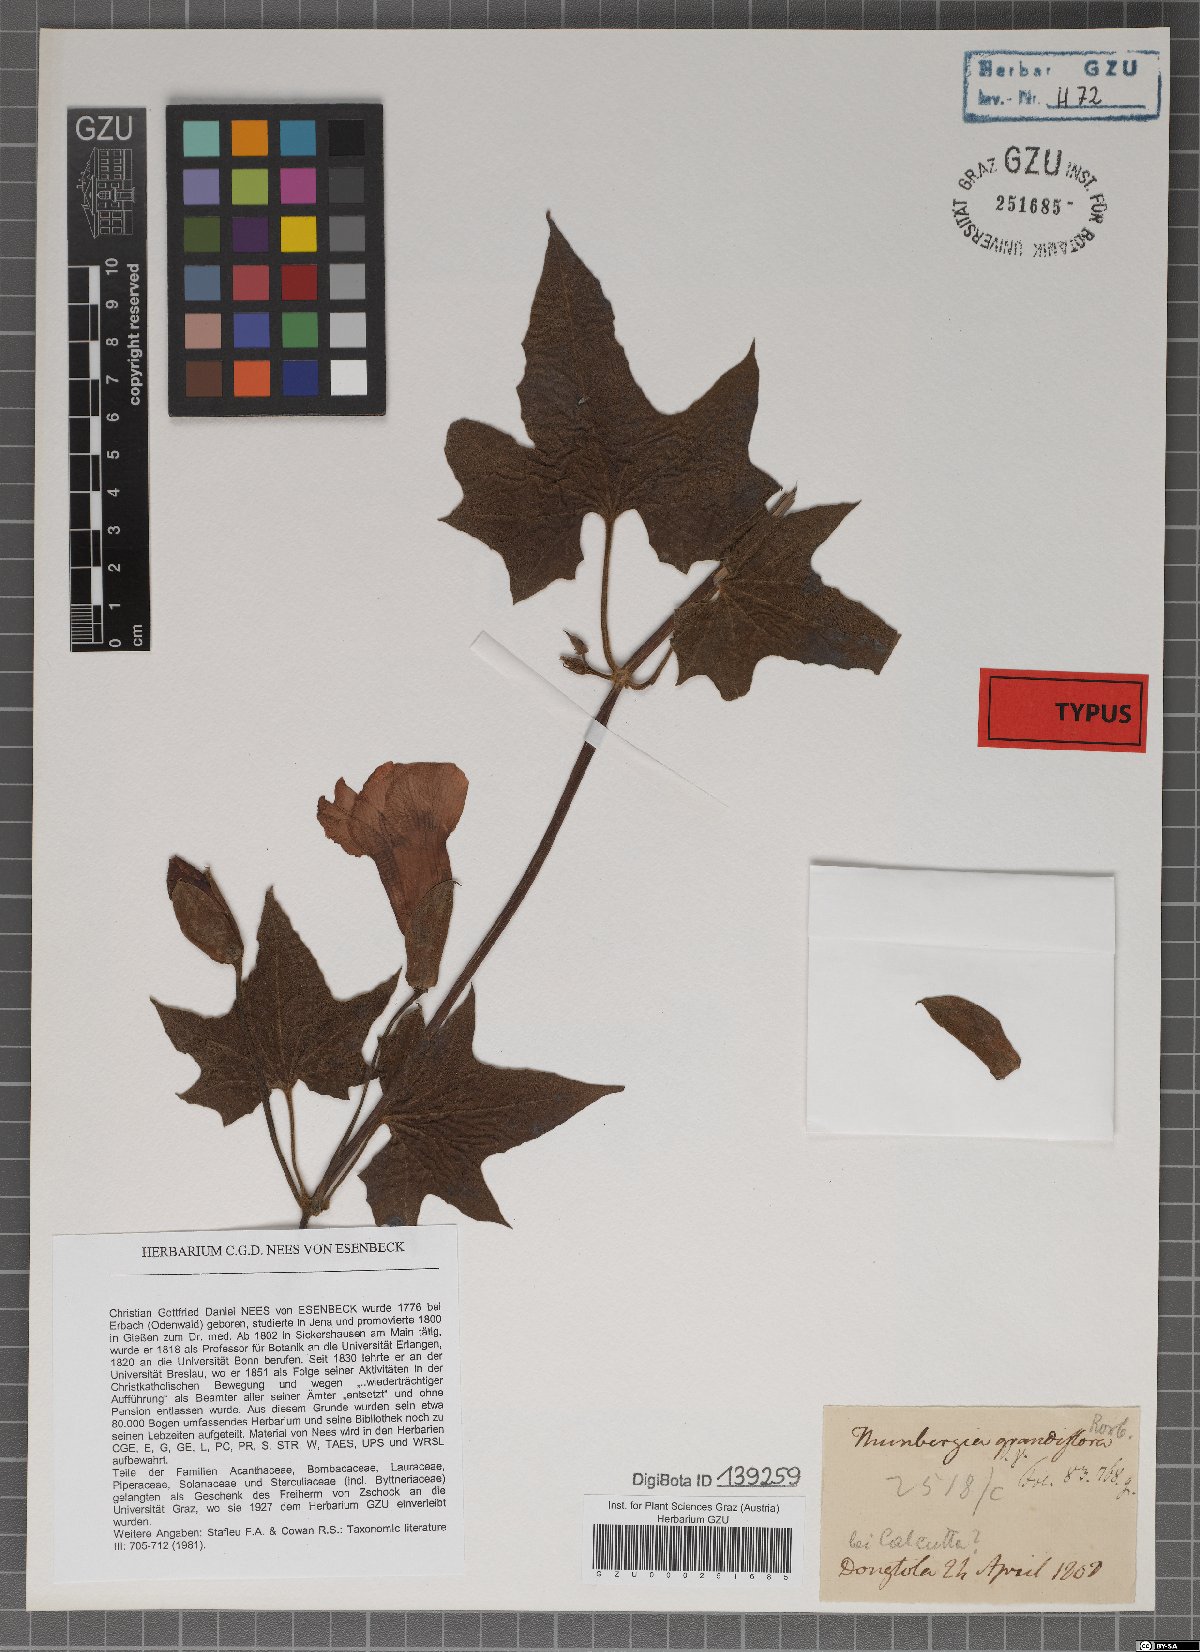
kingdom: Plantae
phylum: Tracheophyta
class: Magnoliopsida
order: Lamiales
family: Acanthaceae
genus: Thunbergia
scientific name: Thunbergia grandiflora
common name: Bengal trumpet
